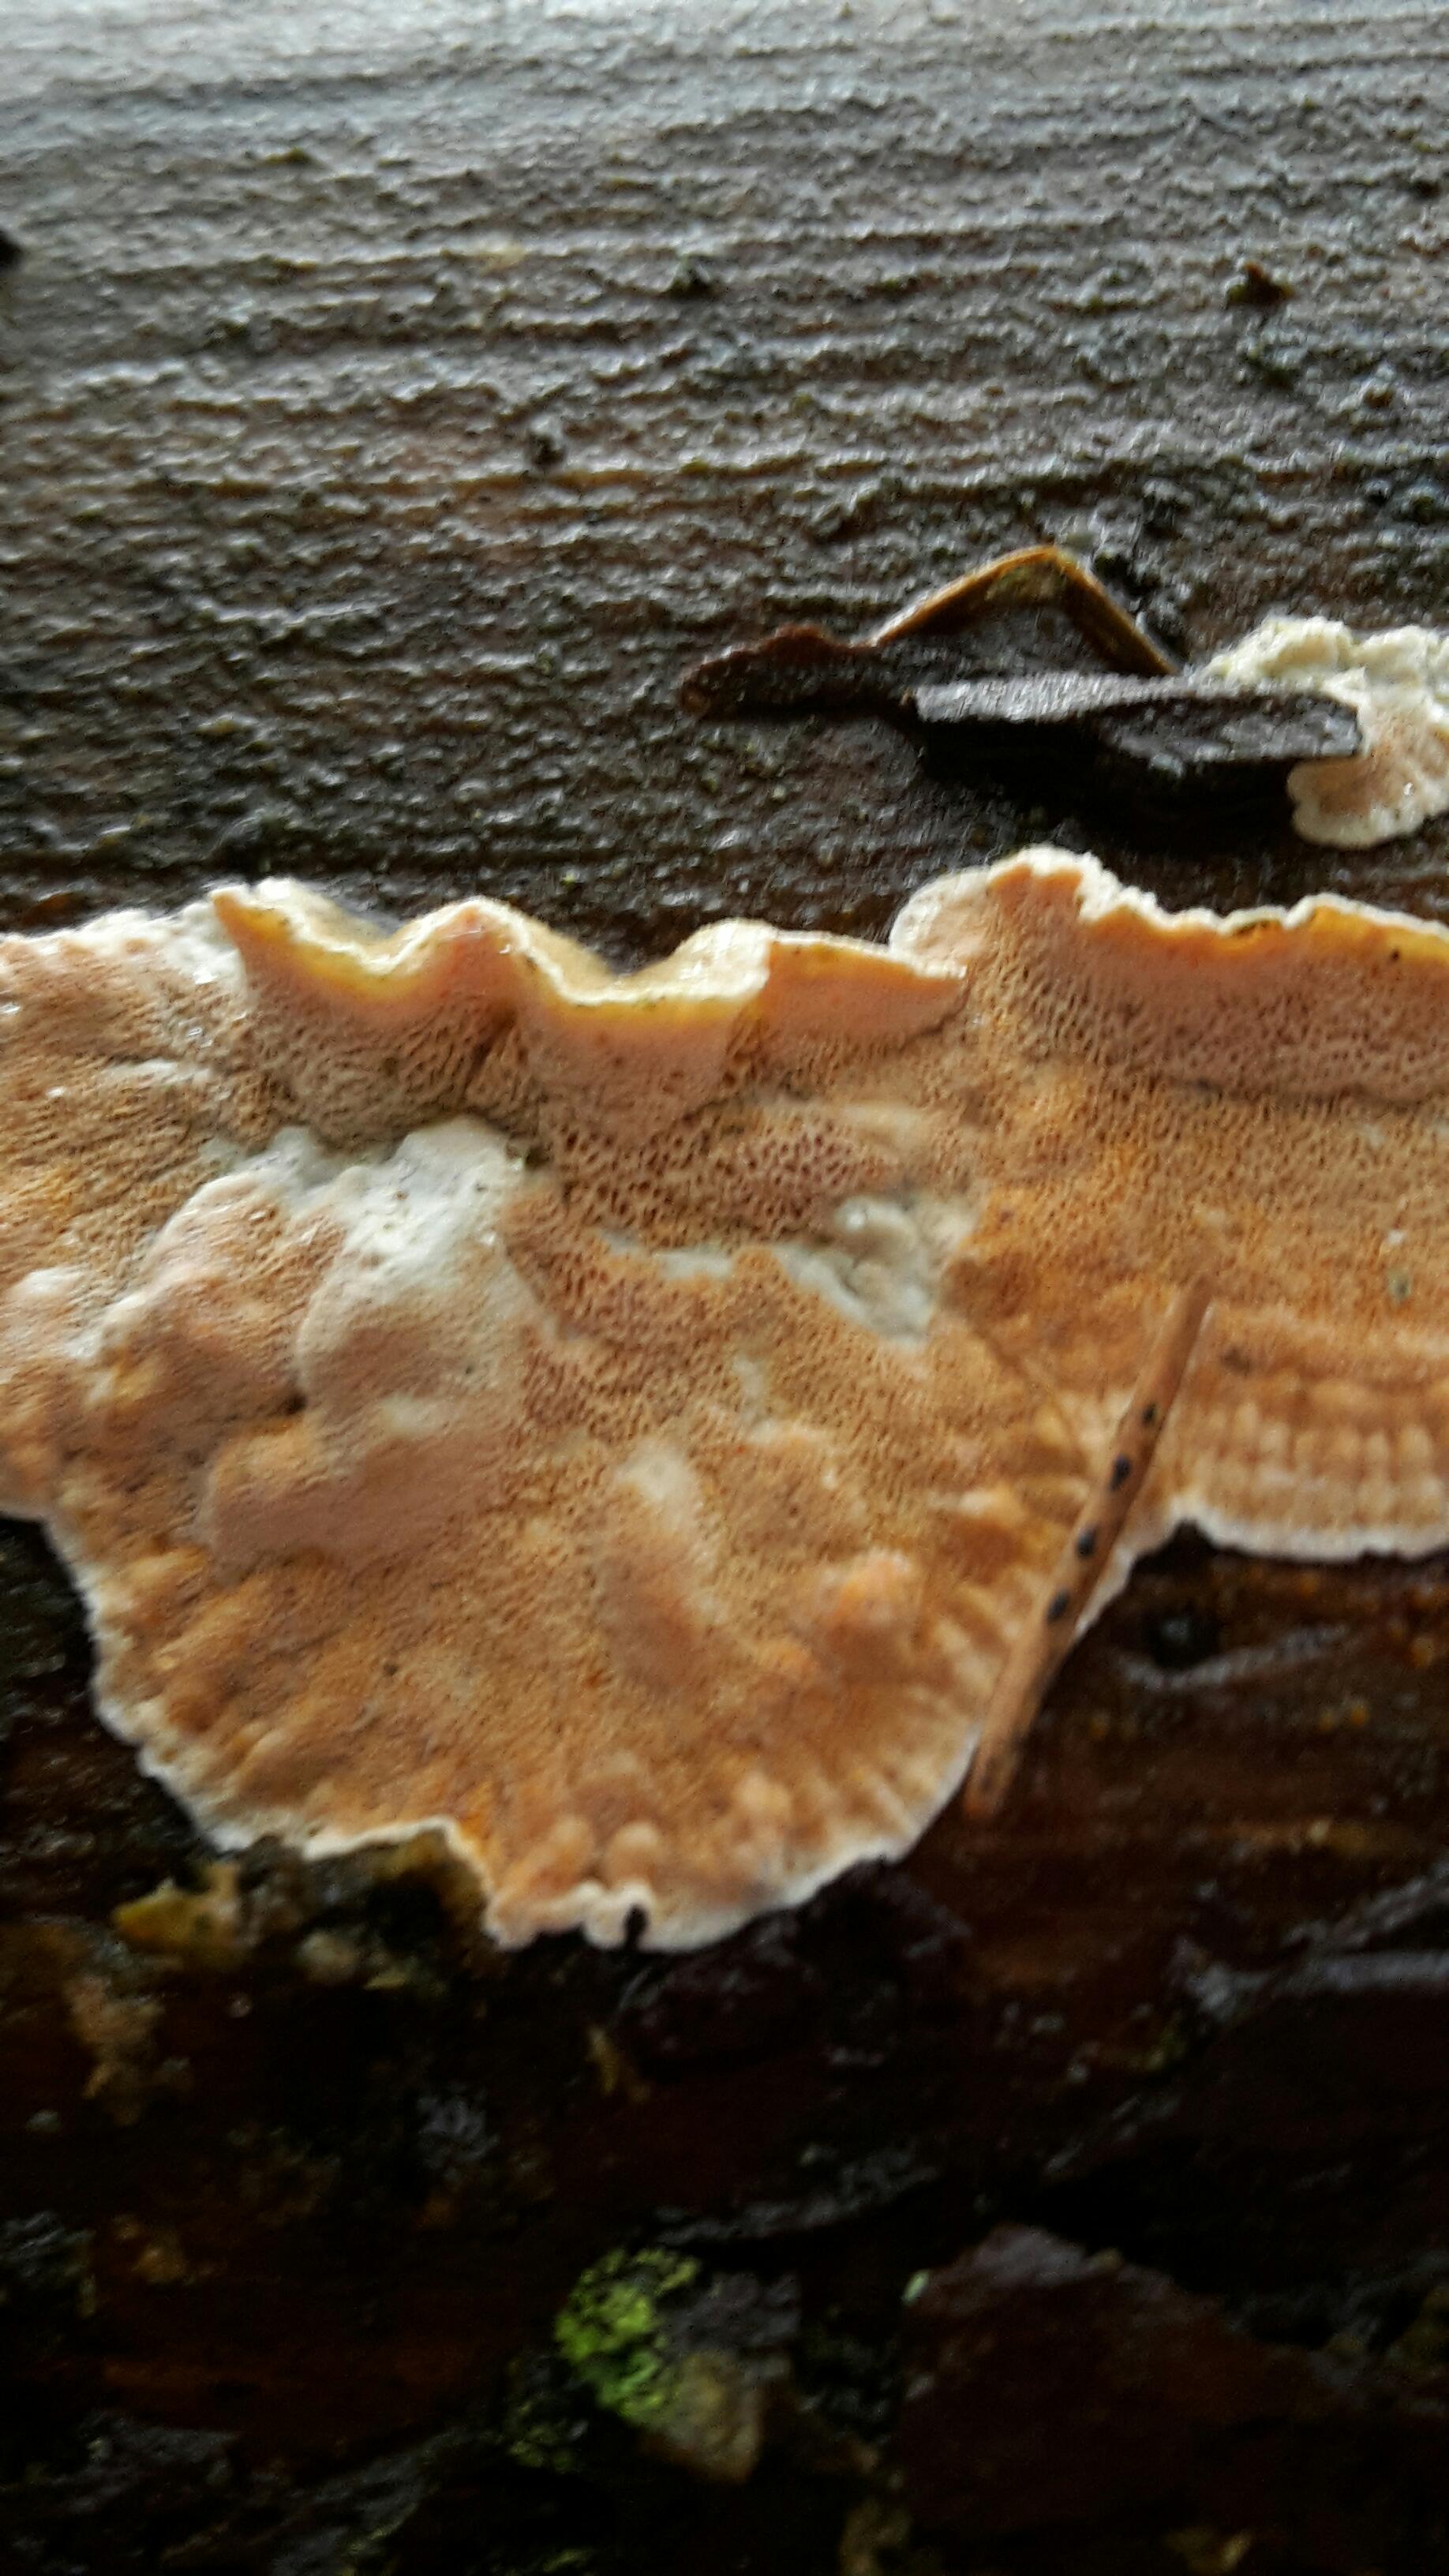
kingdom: Fungi
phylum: Basidiomycota
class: Agaricomycetes
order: Polyporales
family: Incrustoporiaceae
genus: Skeletocutis
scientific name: Skeletocutis amorpha
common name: orange krystalporesvamp
